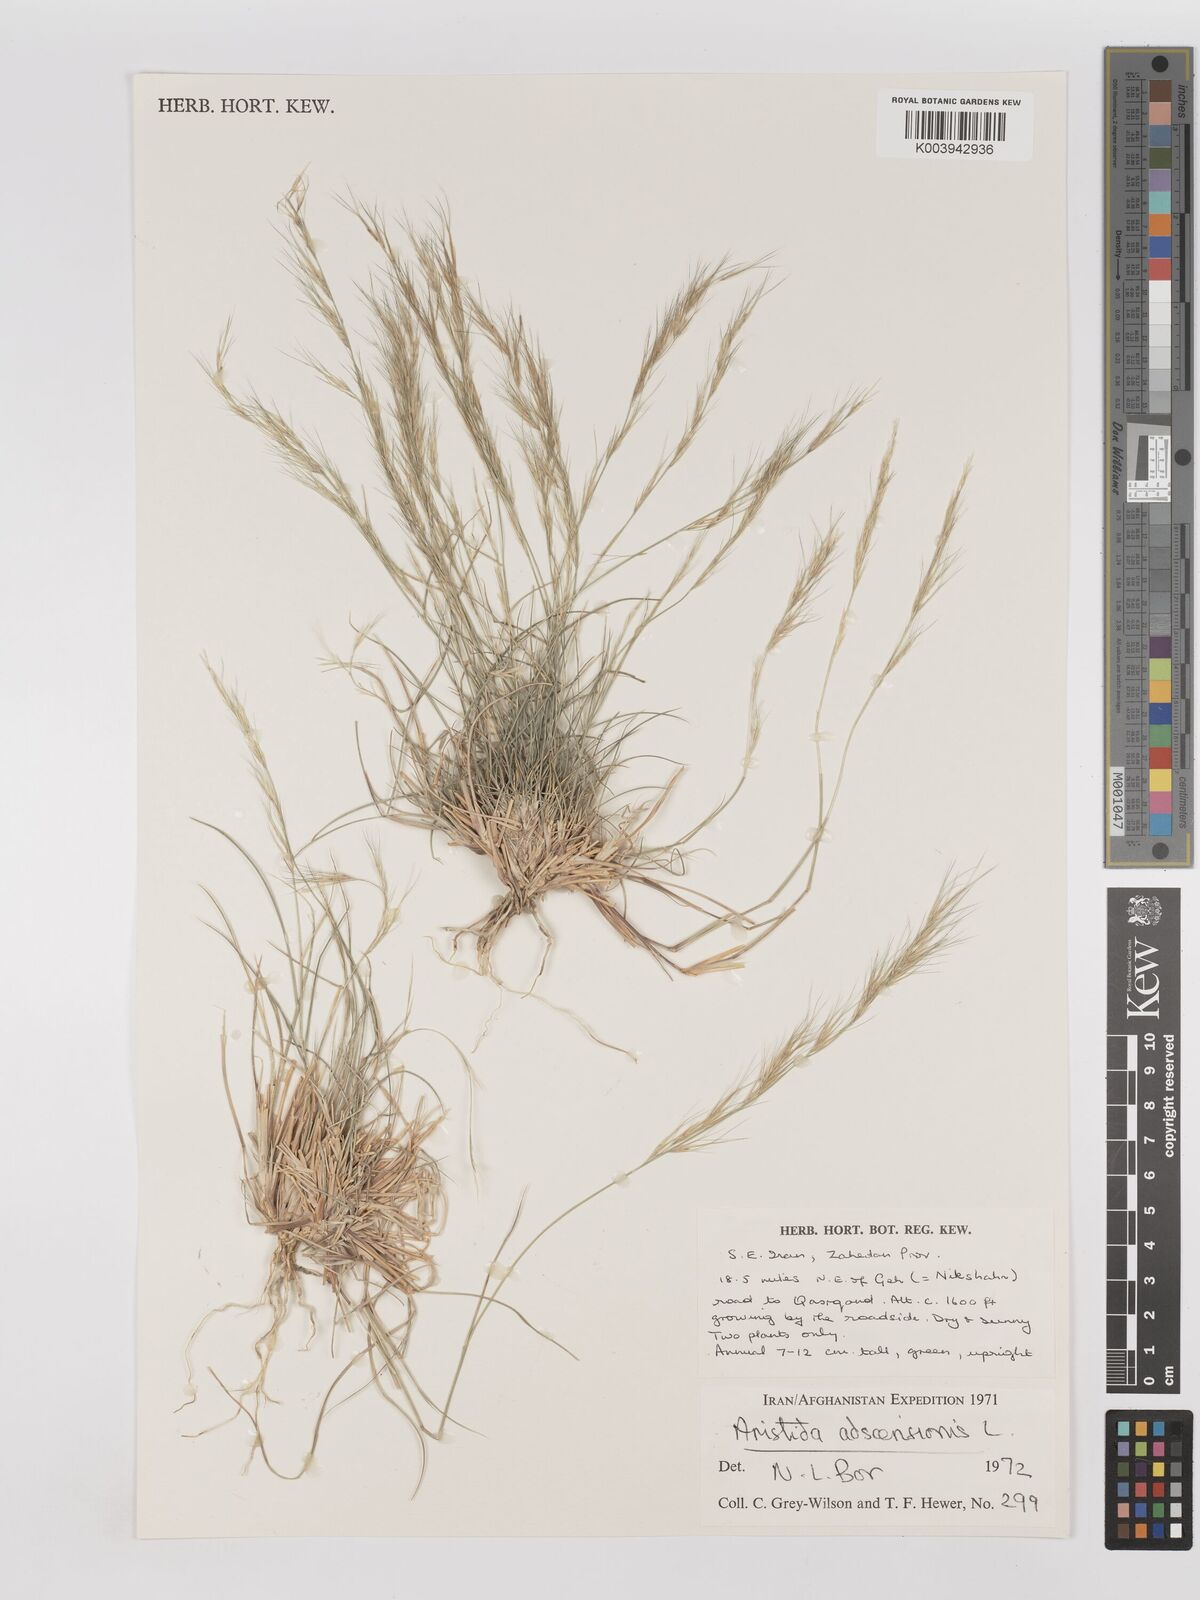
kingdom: Plantae
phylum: Tracheophyta
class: Liliopsida
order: Poales
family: Poaceae
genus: Aristida
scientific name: Aristida adscensionis
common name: Sixweeks threeawn
